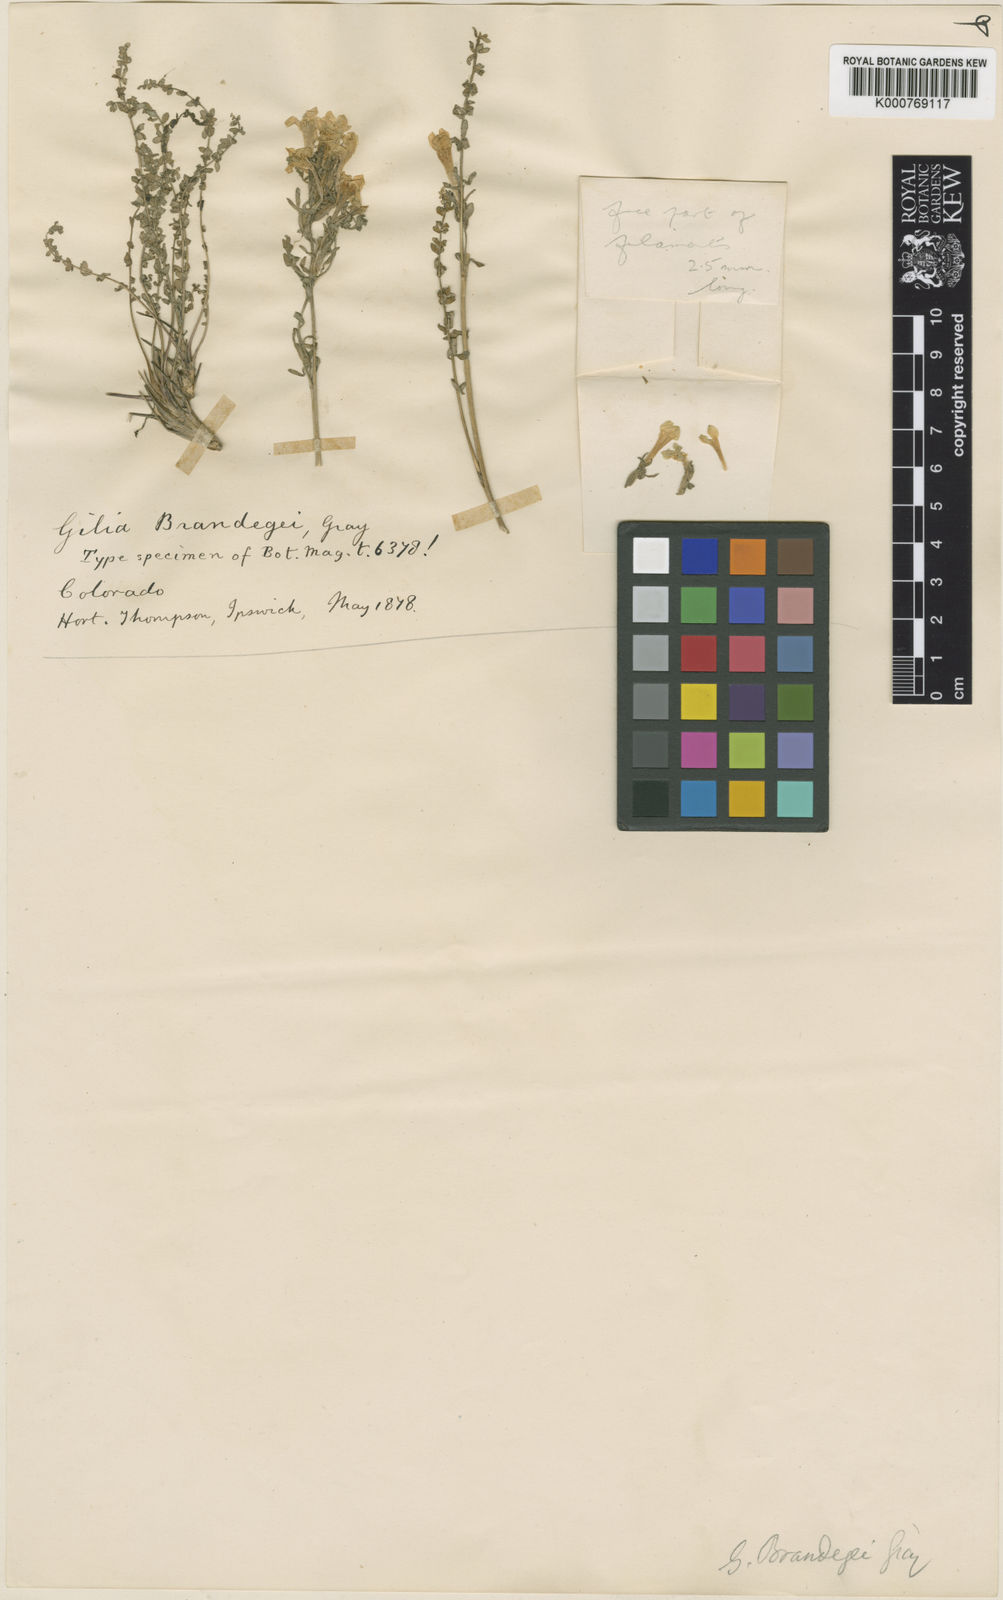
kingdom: Plantae
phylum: Tracheophyta
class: Magnoliopsida
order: Ericales
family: Polemoniaceae
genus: Polemonium
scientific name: Polemonium viscosum
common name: Skunk jacob's-ladder
